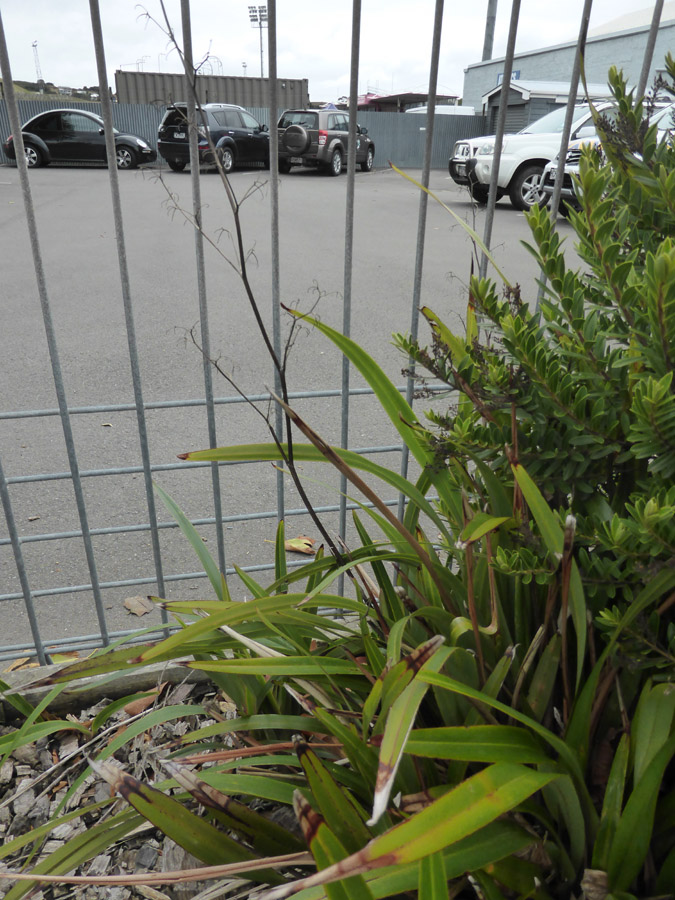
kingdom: Plantae
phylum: Tracheophyta
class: Liliopsida
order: Asparagales
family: Asphodelaceae
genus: Dianella
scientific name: Dianella
